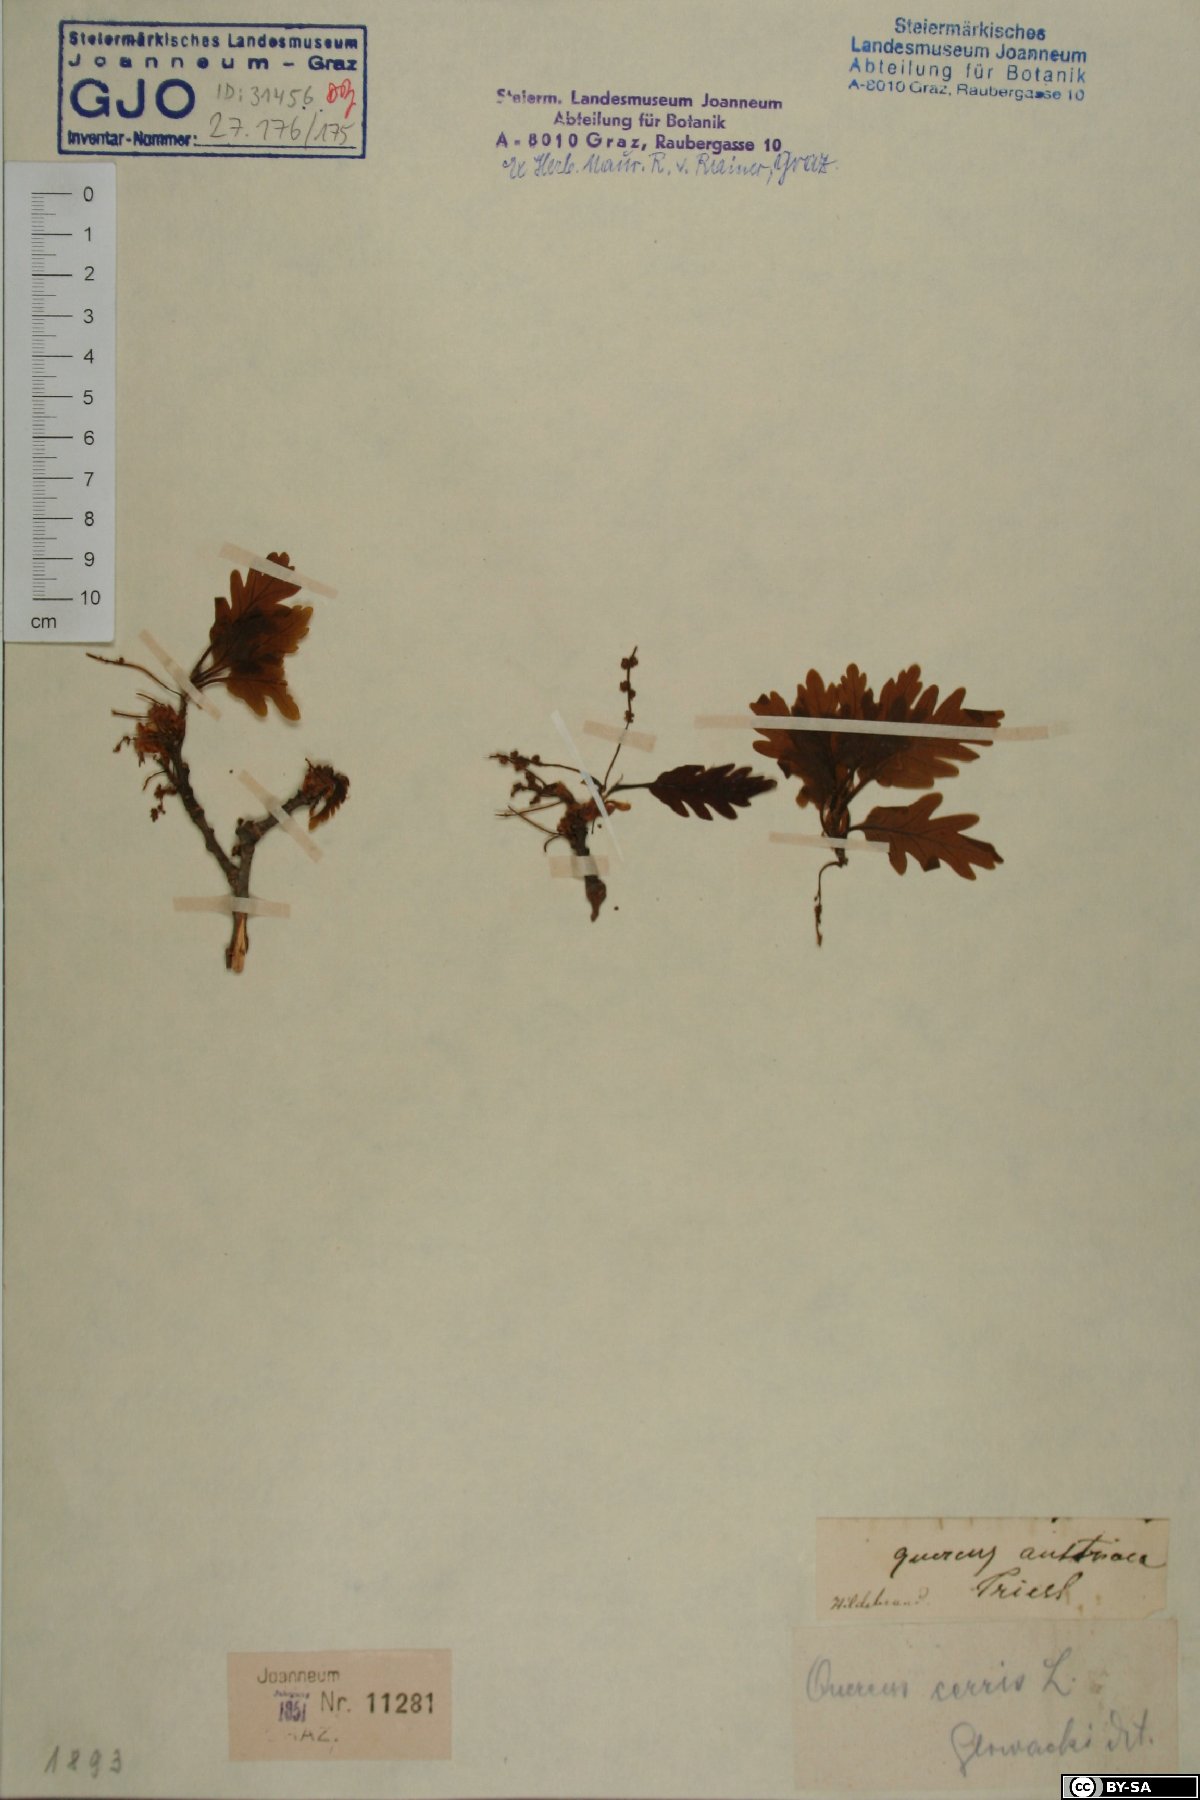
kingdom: Plantae
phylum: Tracheophyta
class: Magnoliopsida
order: Fagales
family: Fagaceae
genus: Quercus
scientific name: Quercus cerris
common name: Turkey oak
